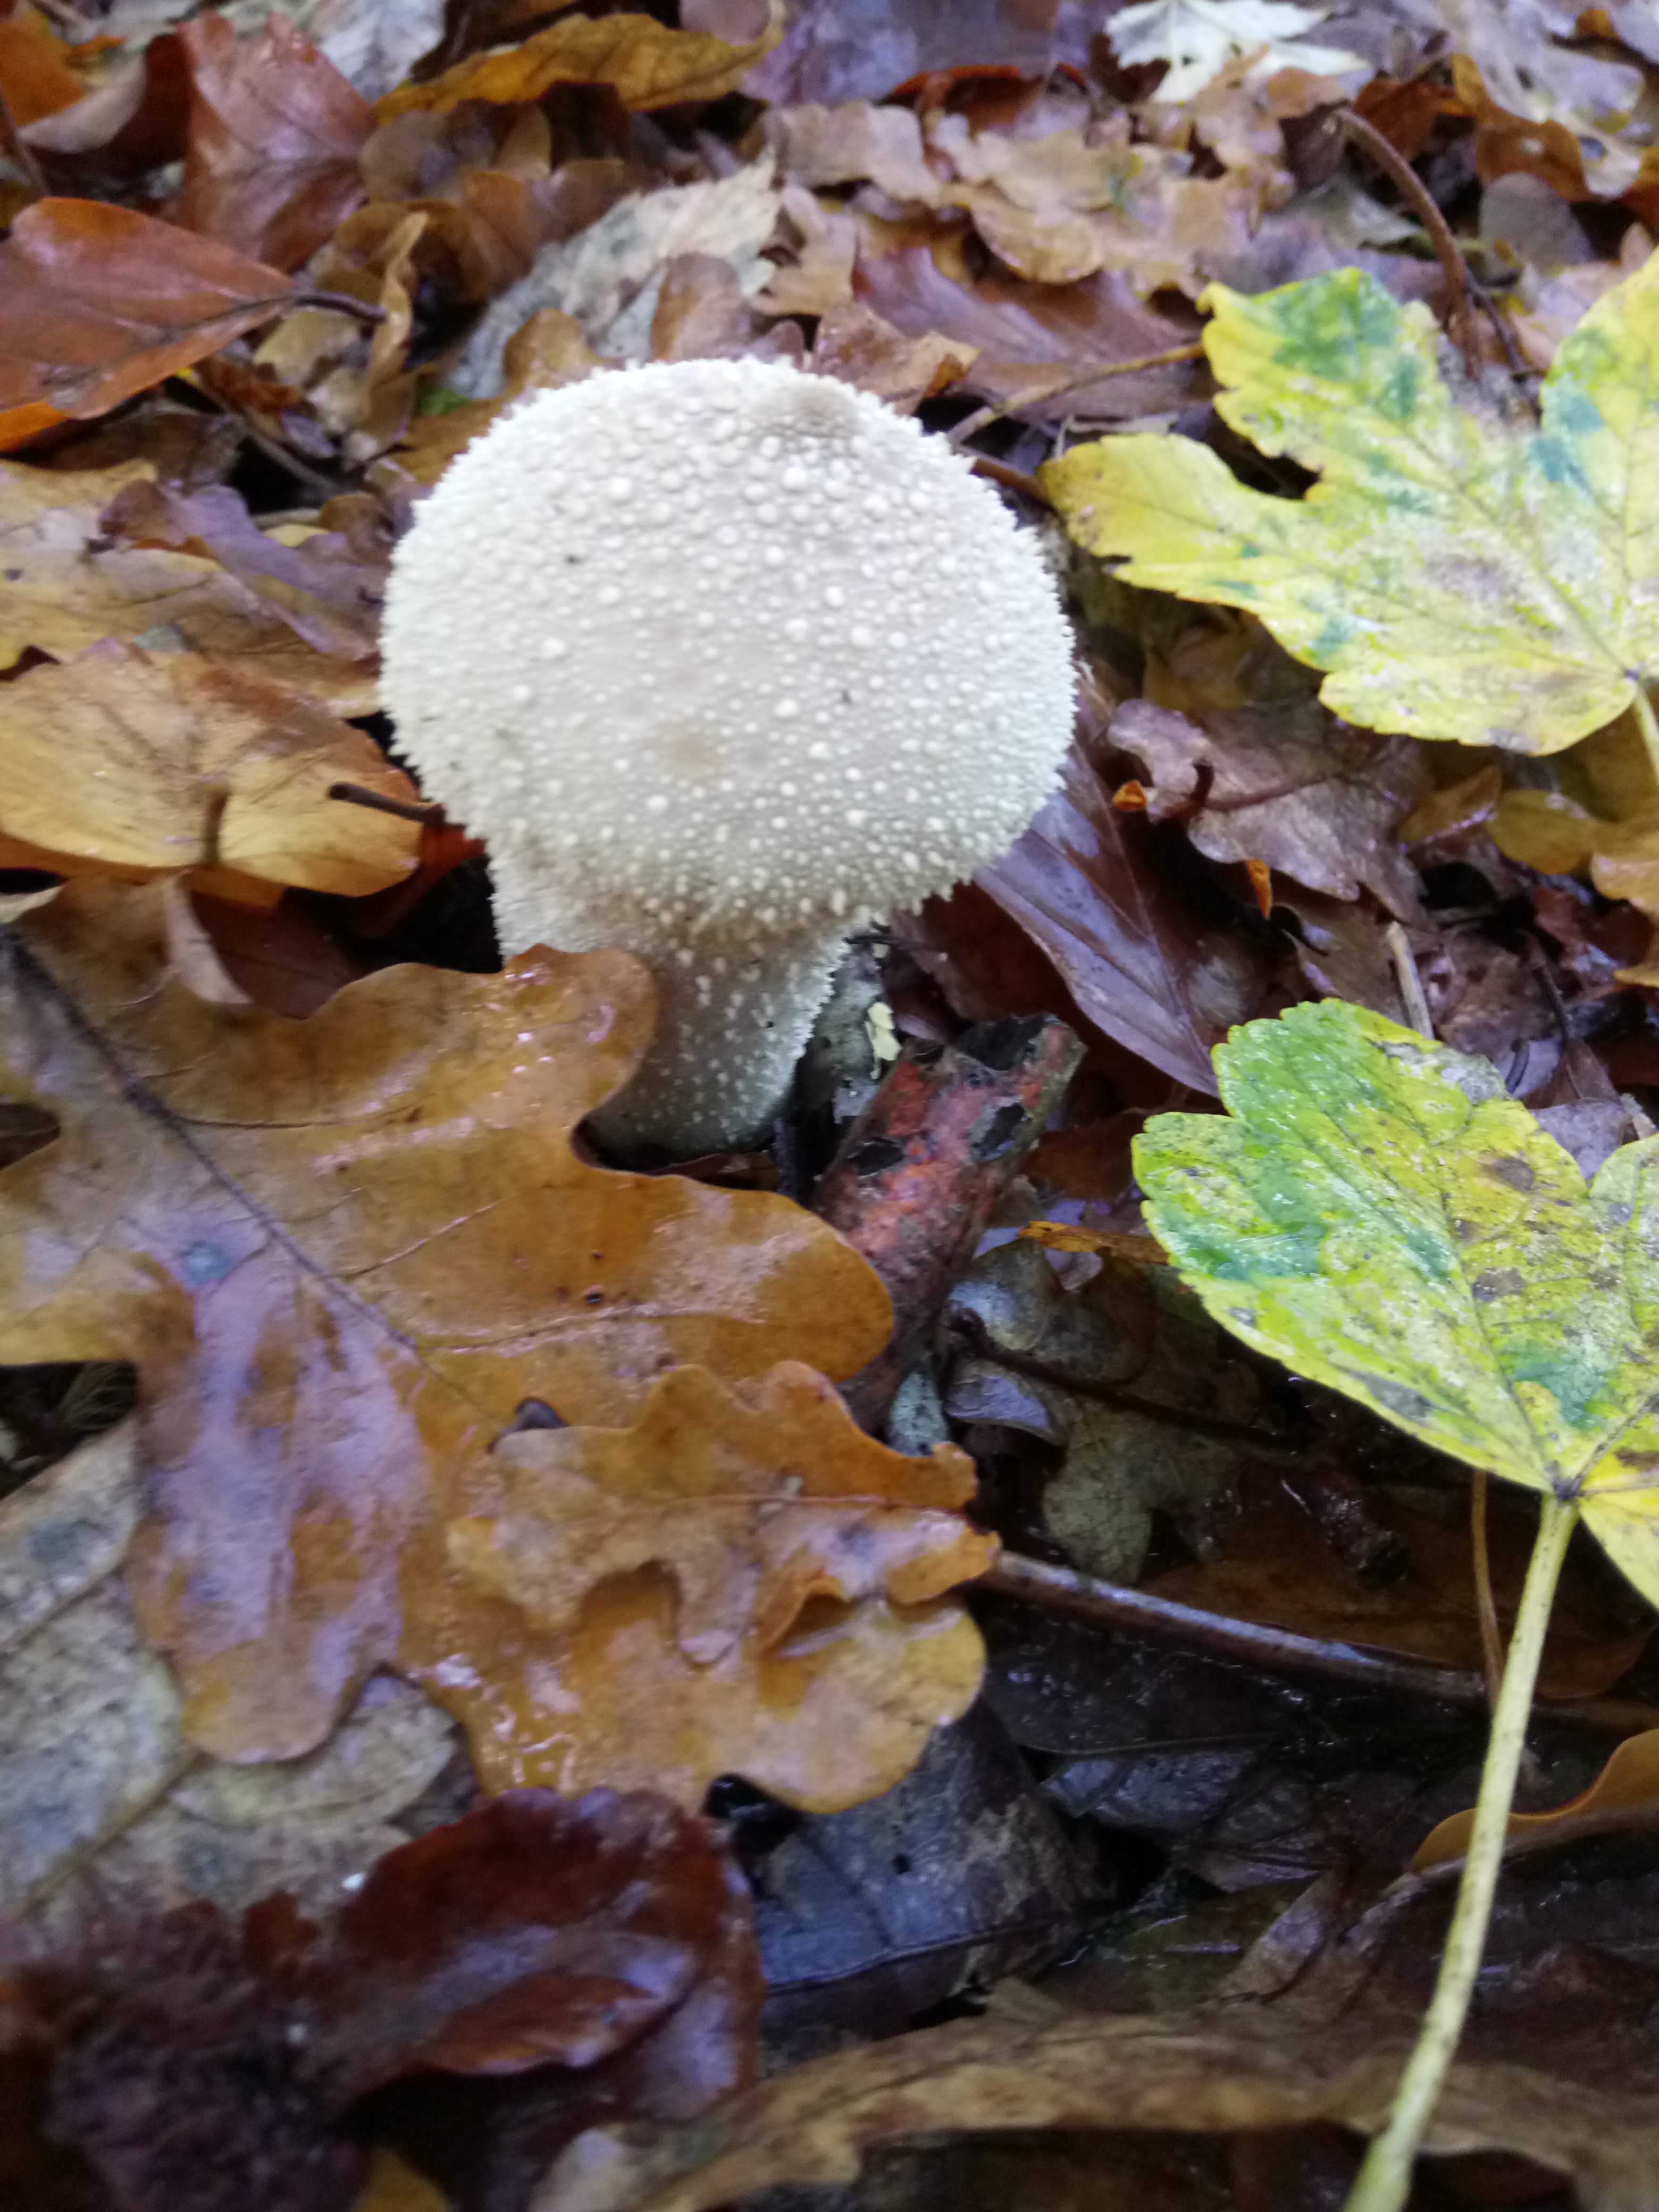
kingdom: Fungi
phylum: Basidiomycota
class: Agaricomycetes
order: Agaricales
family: Lycoperdaceae
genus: Lycoperdon
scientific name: Lycoperdon perlatum
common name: krystal-støvbold
